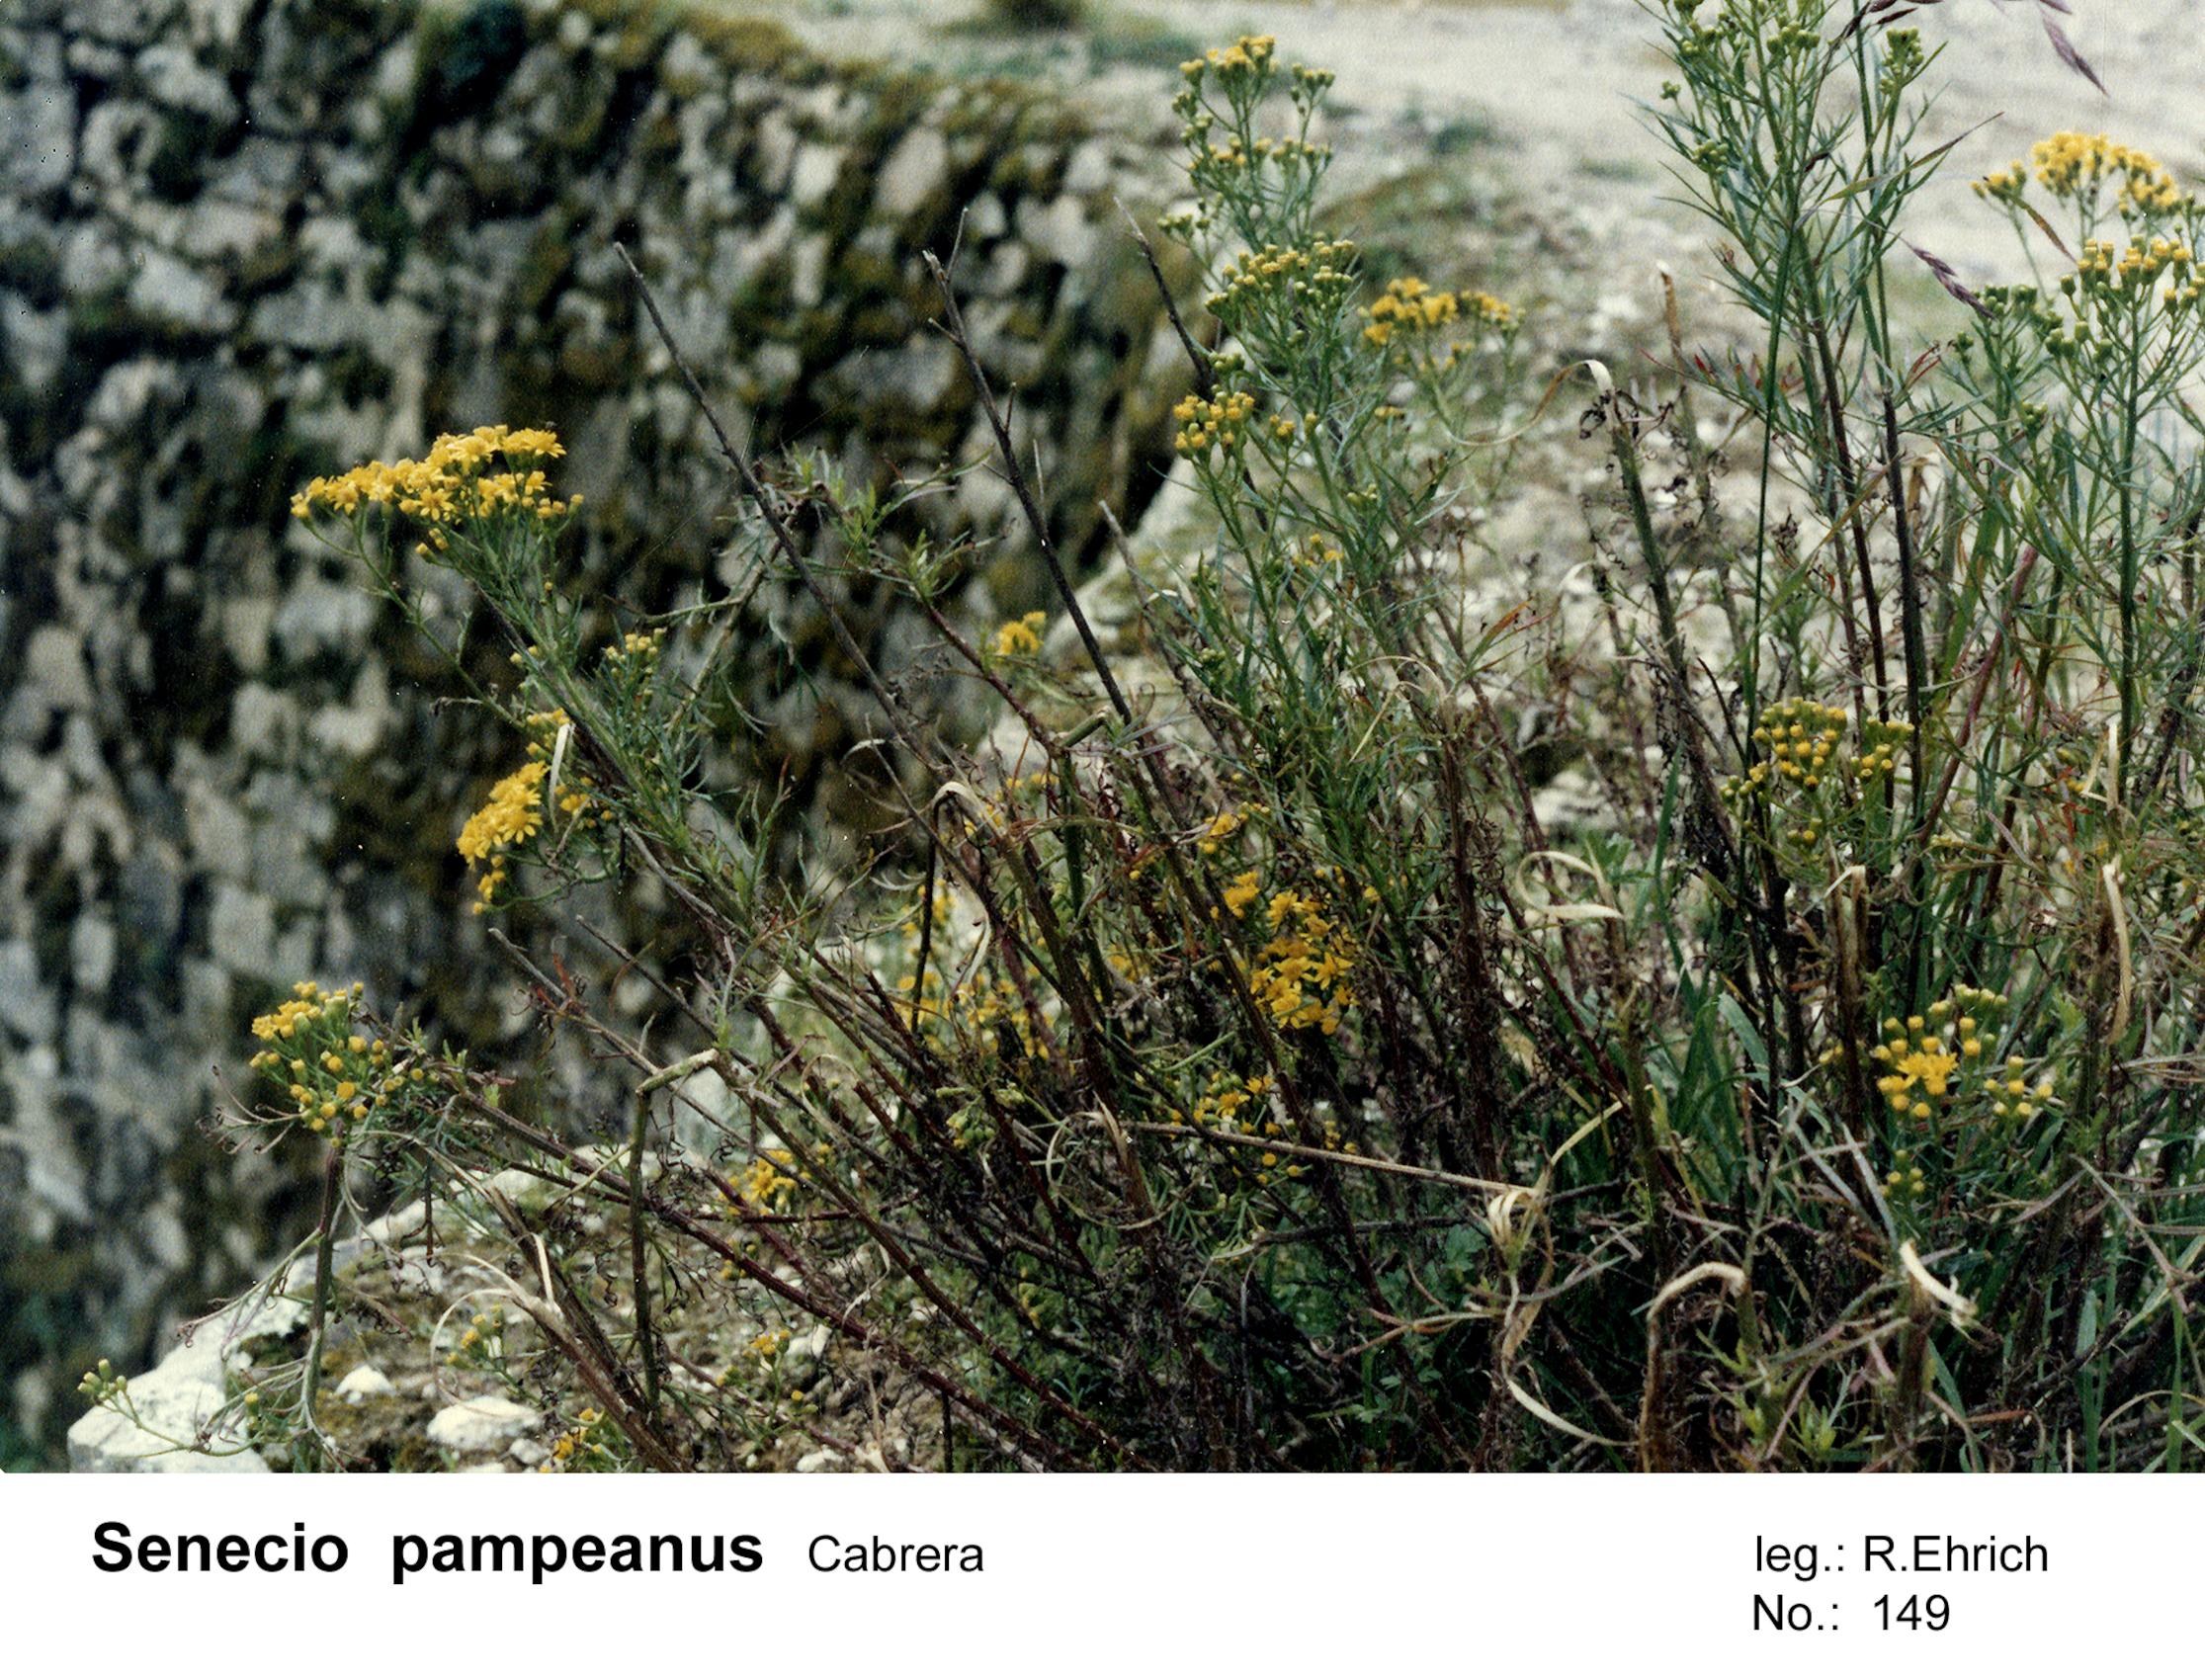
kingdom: Plantae
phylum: Tracheophyta
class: Magnoliopsida
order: Asterales
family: Asteraceae
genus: Senecio
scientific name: Senecio pampeanus
